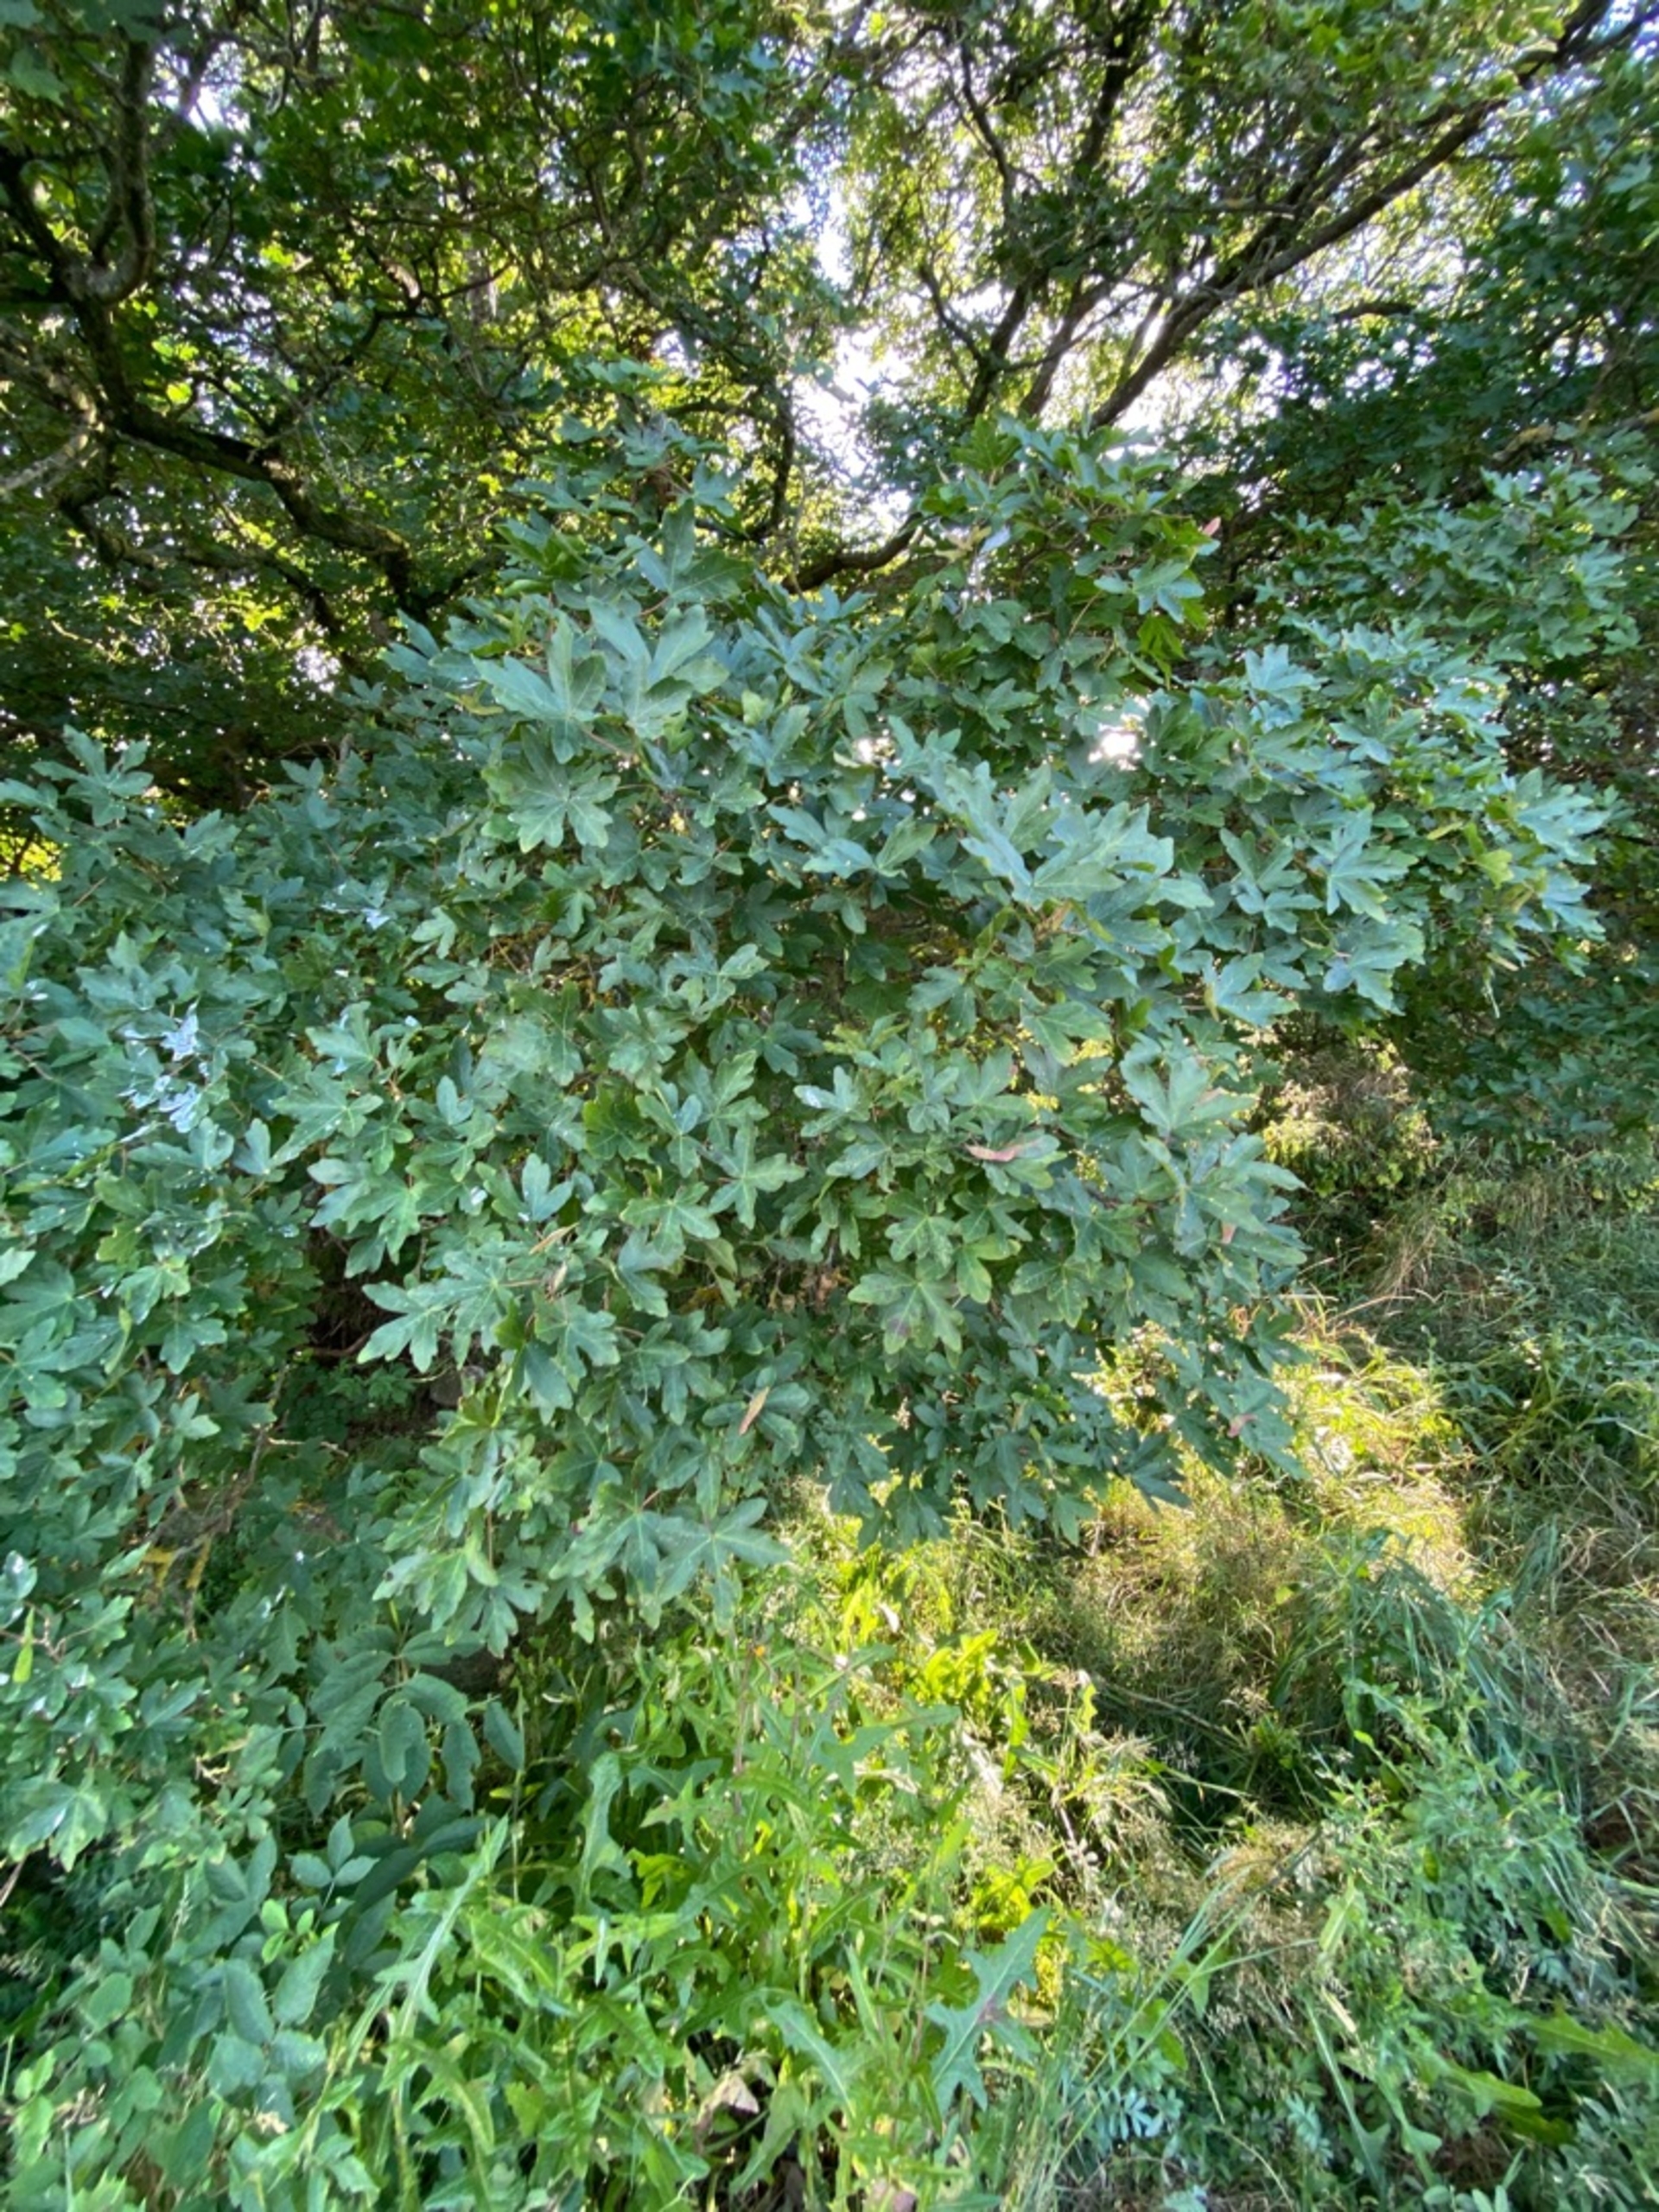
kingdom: Plantae
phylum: Tracheophyta
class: Magnoliopsida
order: Sapindales
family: Sapindaceae
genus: Acer
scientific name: Acer campestre
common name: Navr
